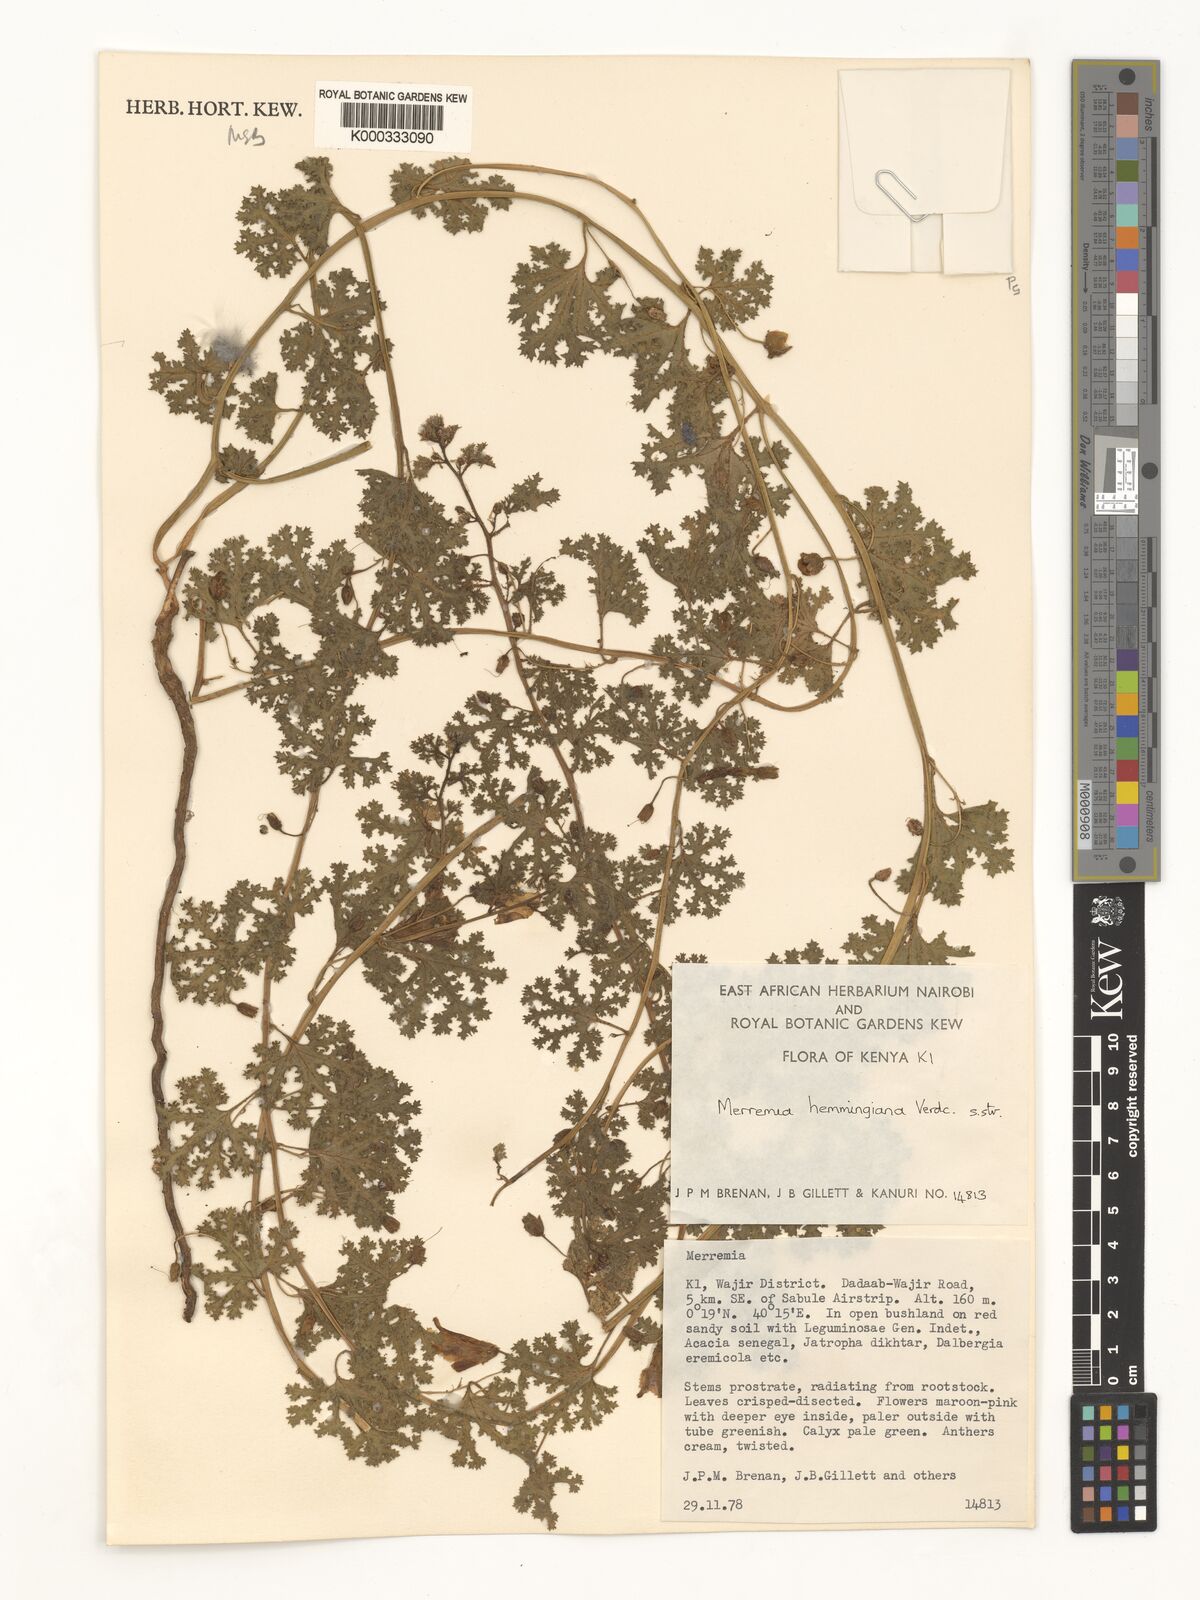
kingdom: Plantae
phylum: Tracheophyta
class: Magnoliopsida
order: Solanales
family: Convolvulaceae
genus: Merremia
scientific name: Merremia hemmingiana
